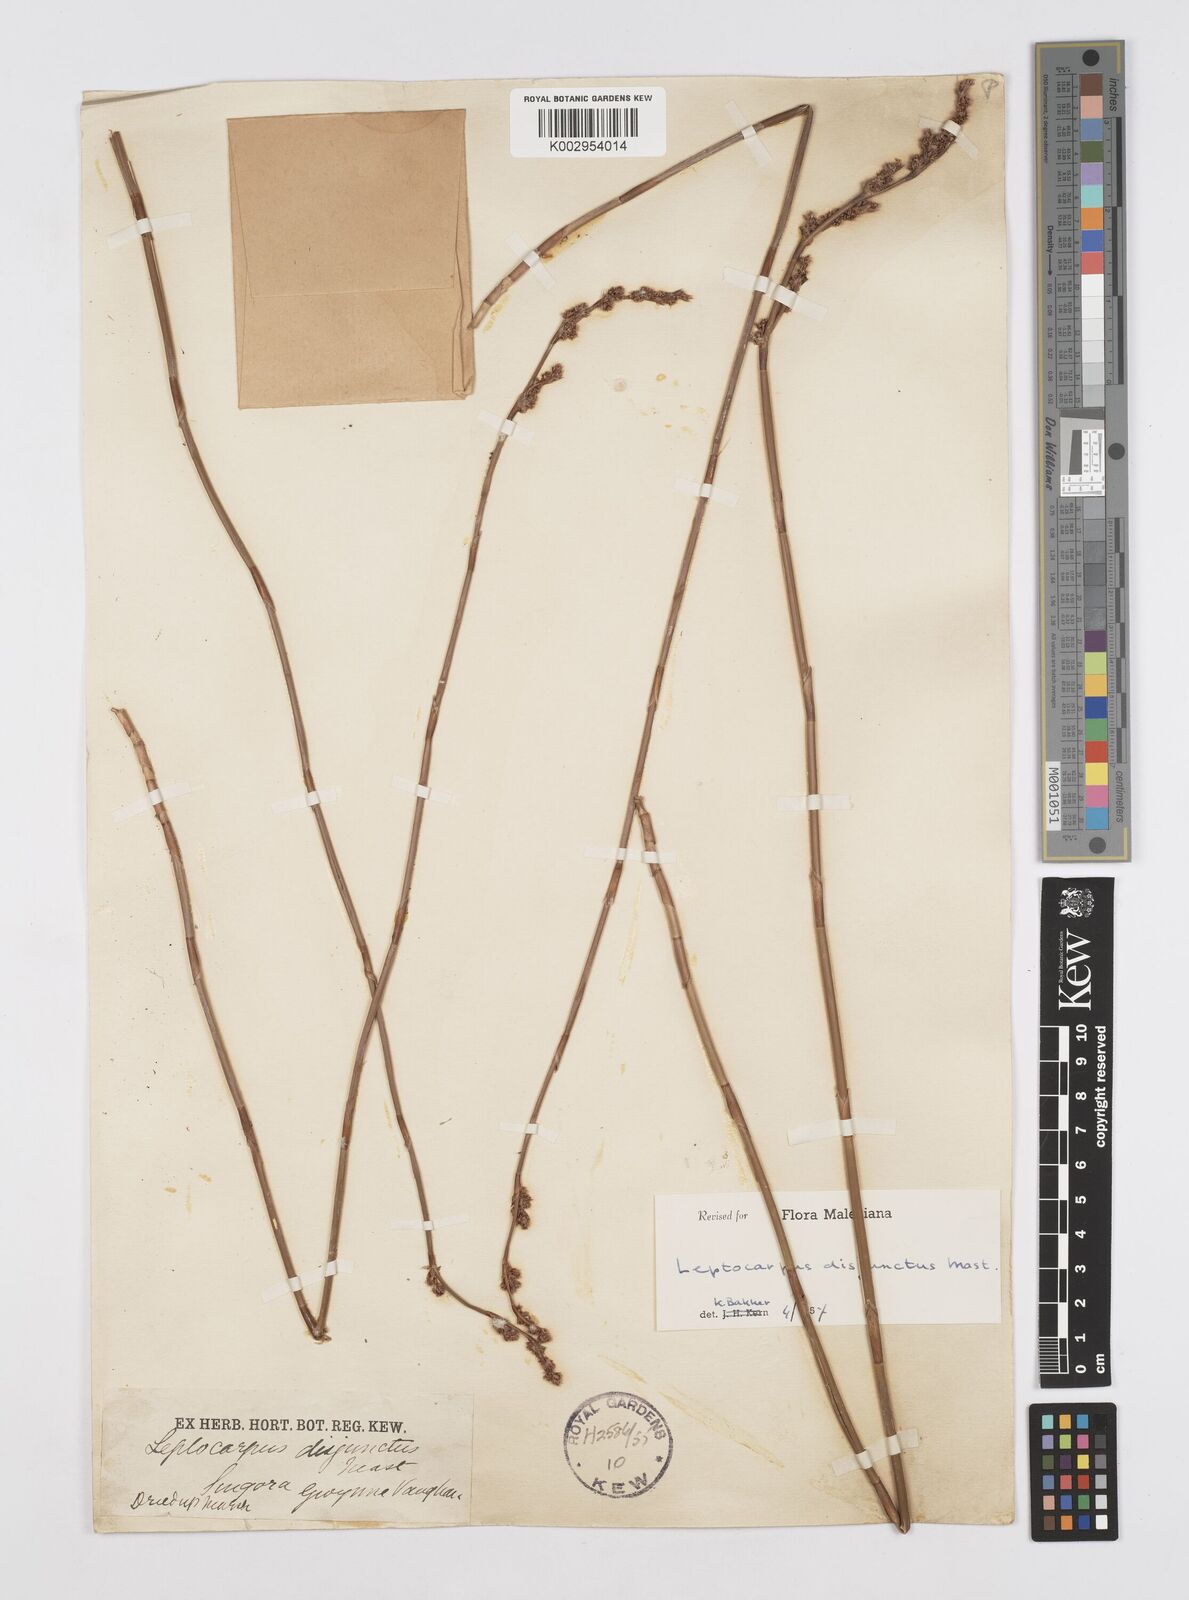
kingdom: Plantae
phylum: Tracheophyta
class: Liliopsida
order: Poales
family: Restionaceae
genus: Dapsilanthus
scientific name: Dapsilanthus disjunctus
